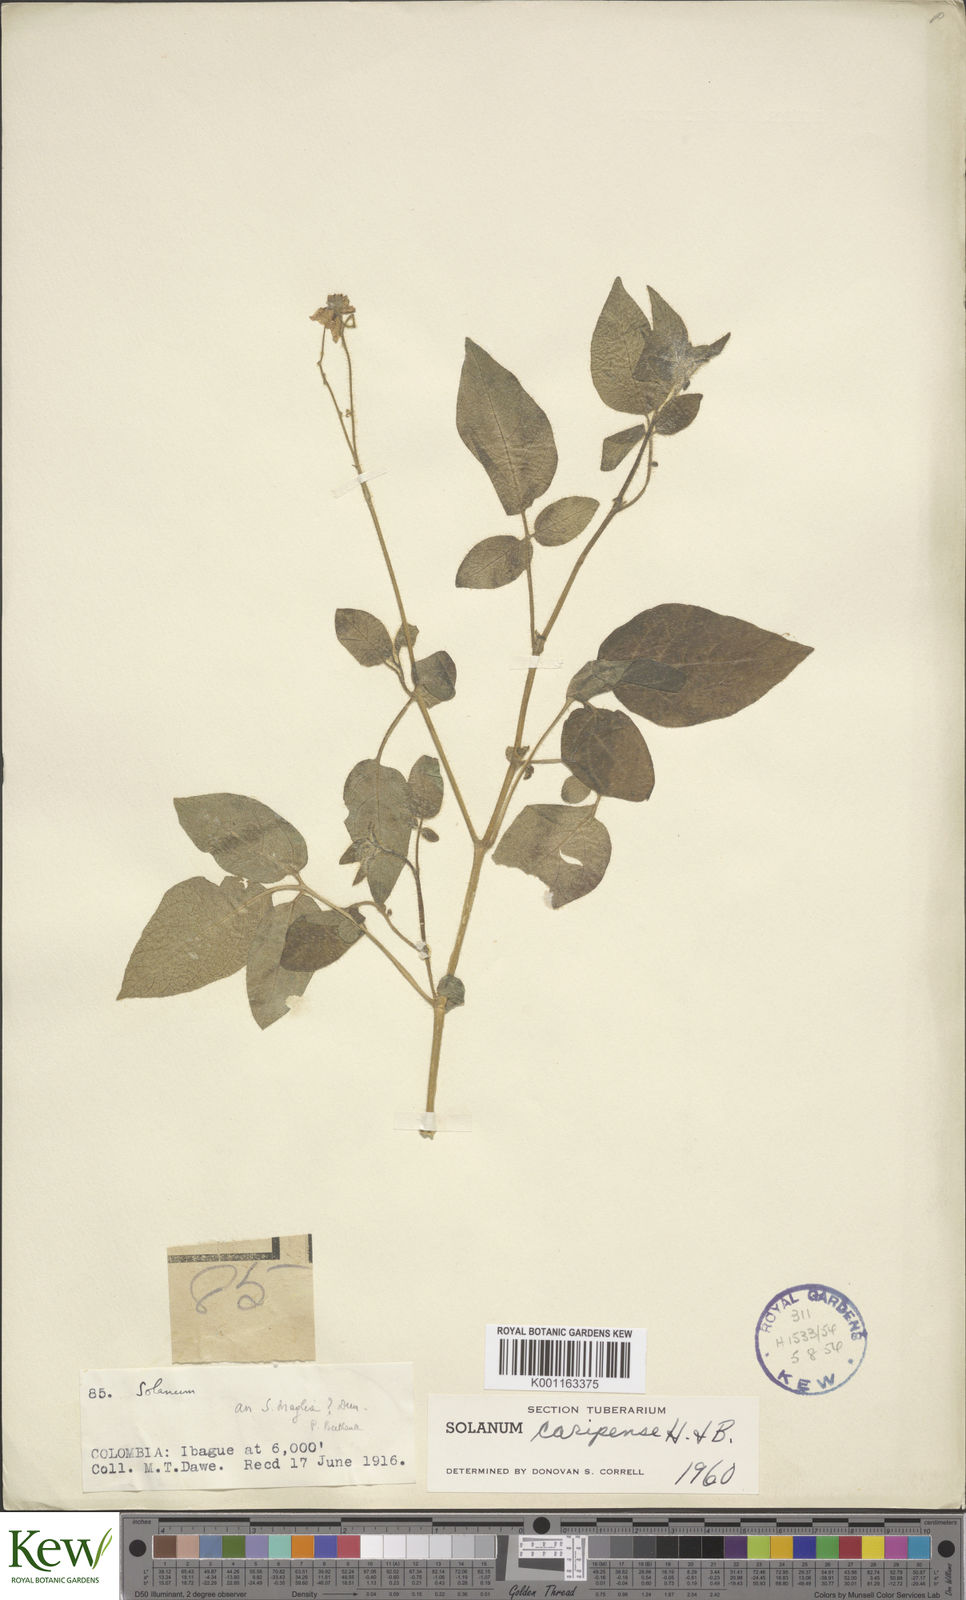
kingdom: Plantae
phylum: Tracheophyta
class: Magnoliopsida
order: Solanales
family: Solanaceae
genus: Solanum
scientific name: Solanum caripense
